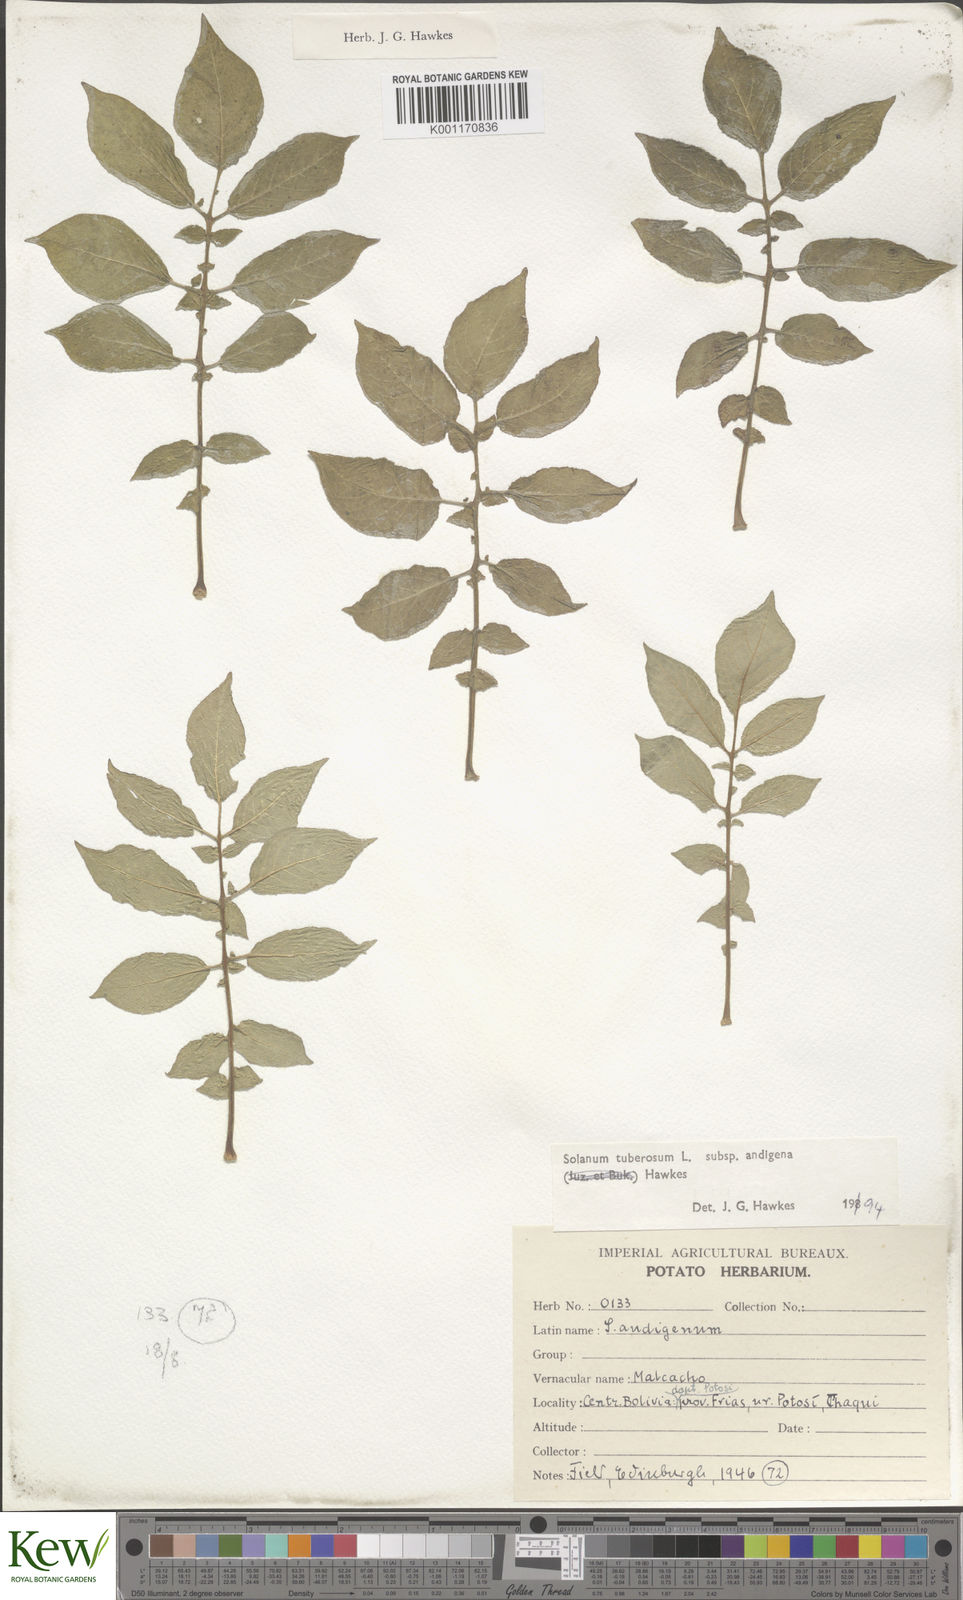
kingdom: Plantae
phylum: Tracheophyta
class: Magnoliopsida
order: Solanales
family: Solanaceae
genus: Solanum
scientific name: Solanum tuberosum
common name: Potato
